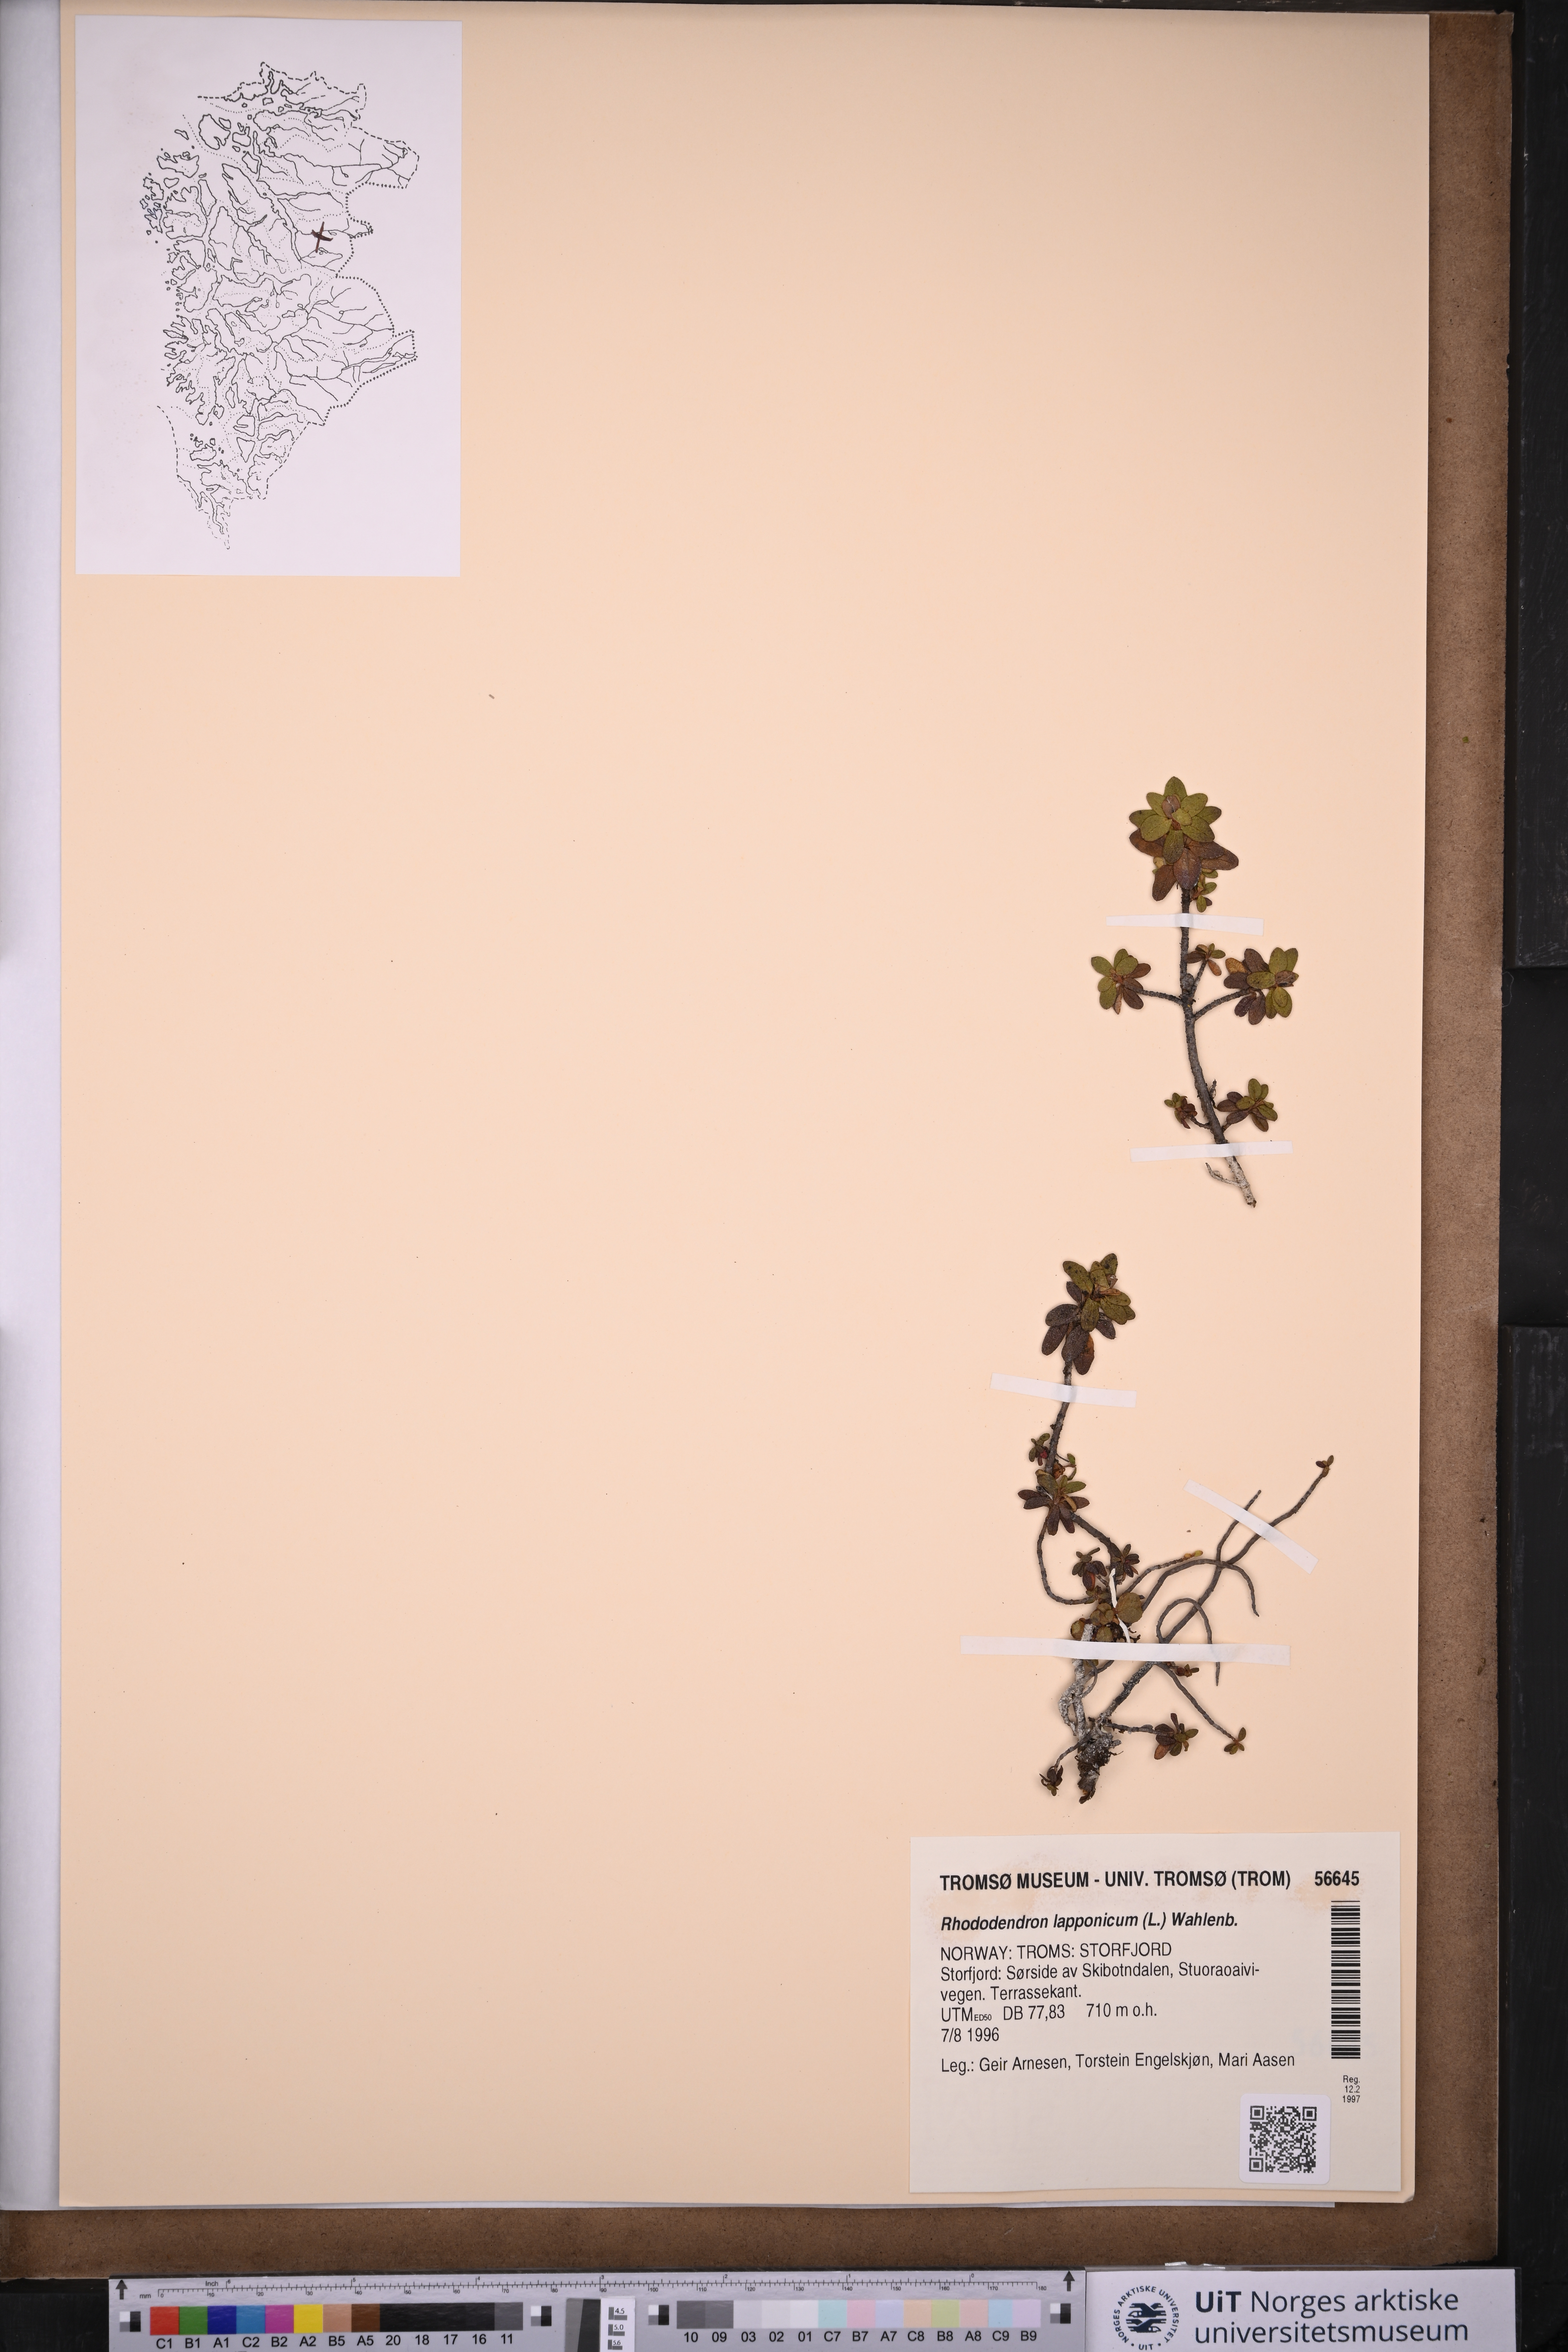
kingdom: Plantae
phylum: Tracheophyta
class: Magnoliopsida
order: Ericales
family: Ericaceae
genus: Rhododendron
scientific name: Rhododendron lapponicum
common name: Lapland rhododendron
